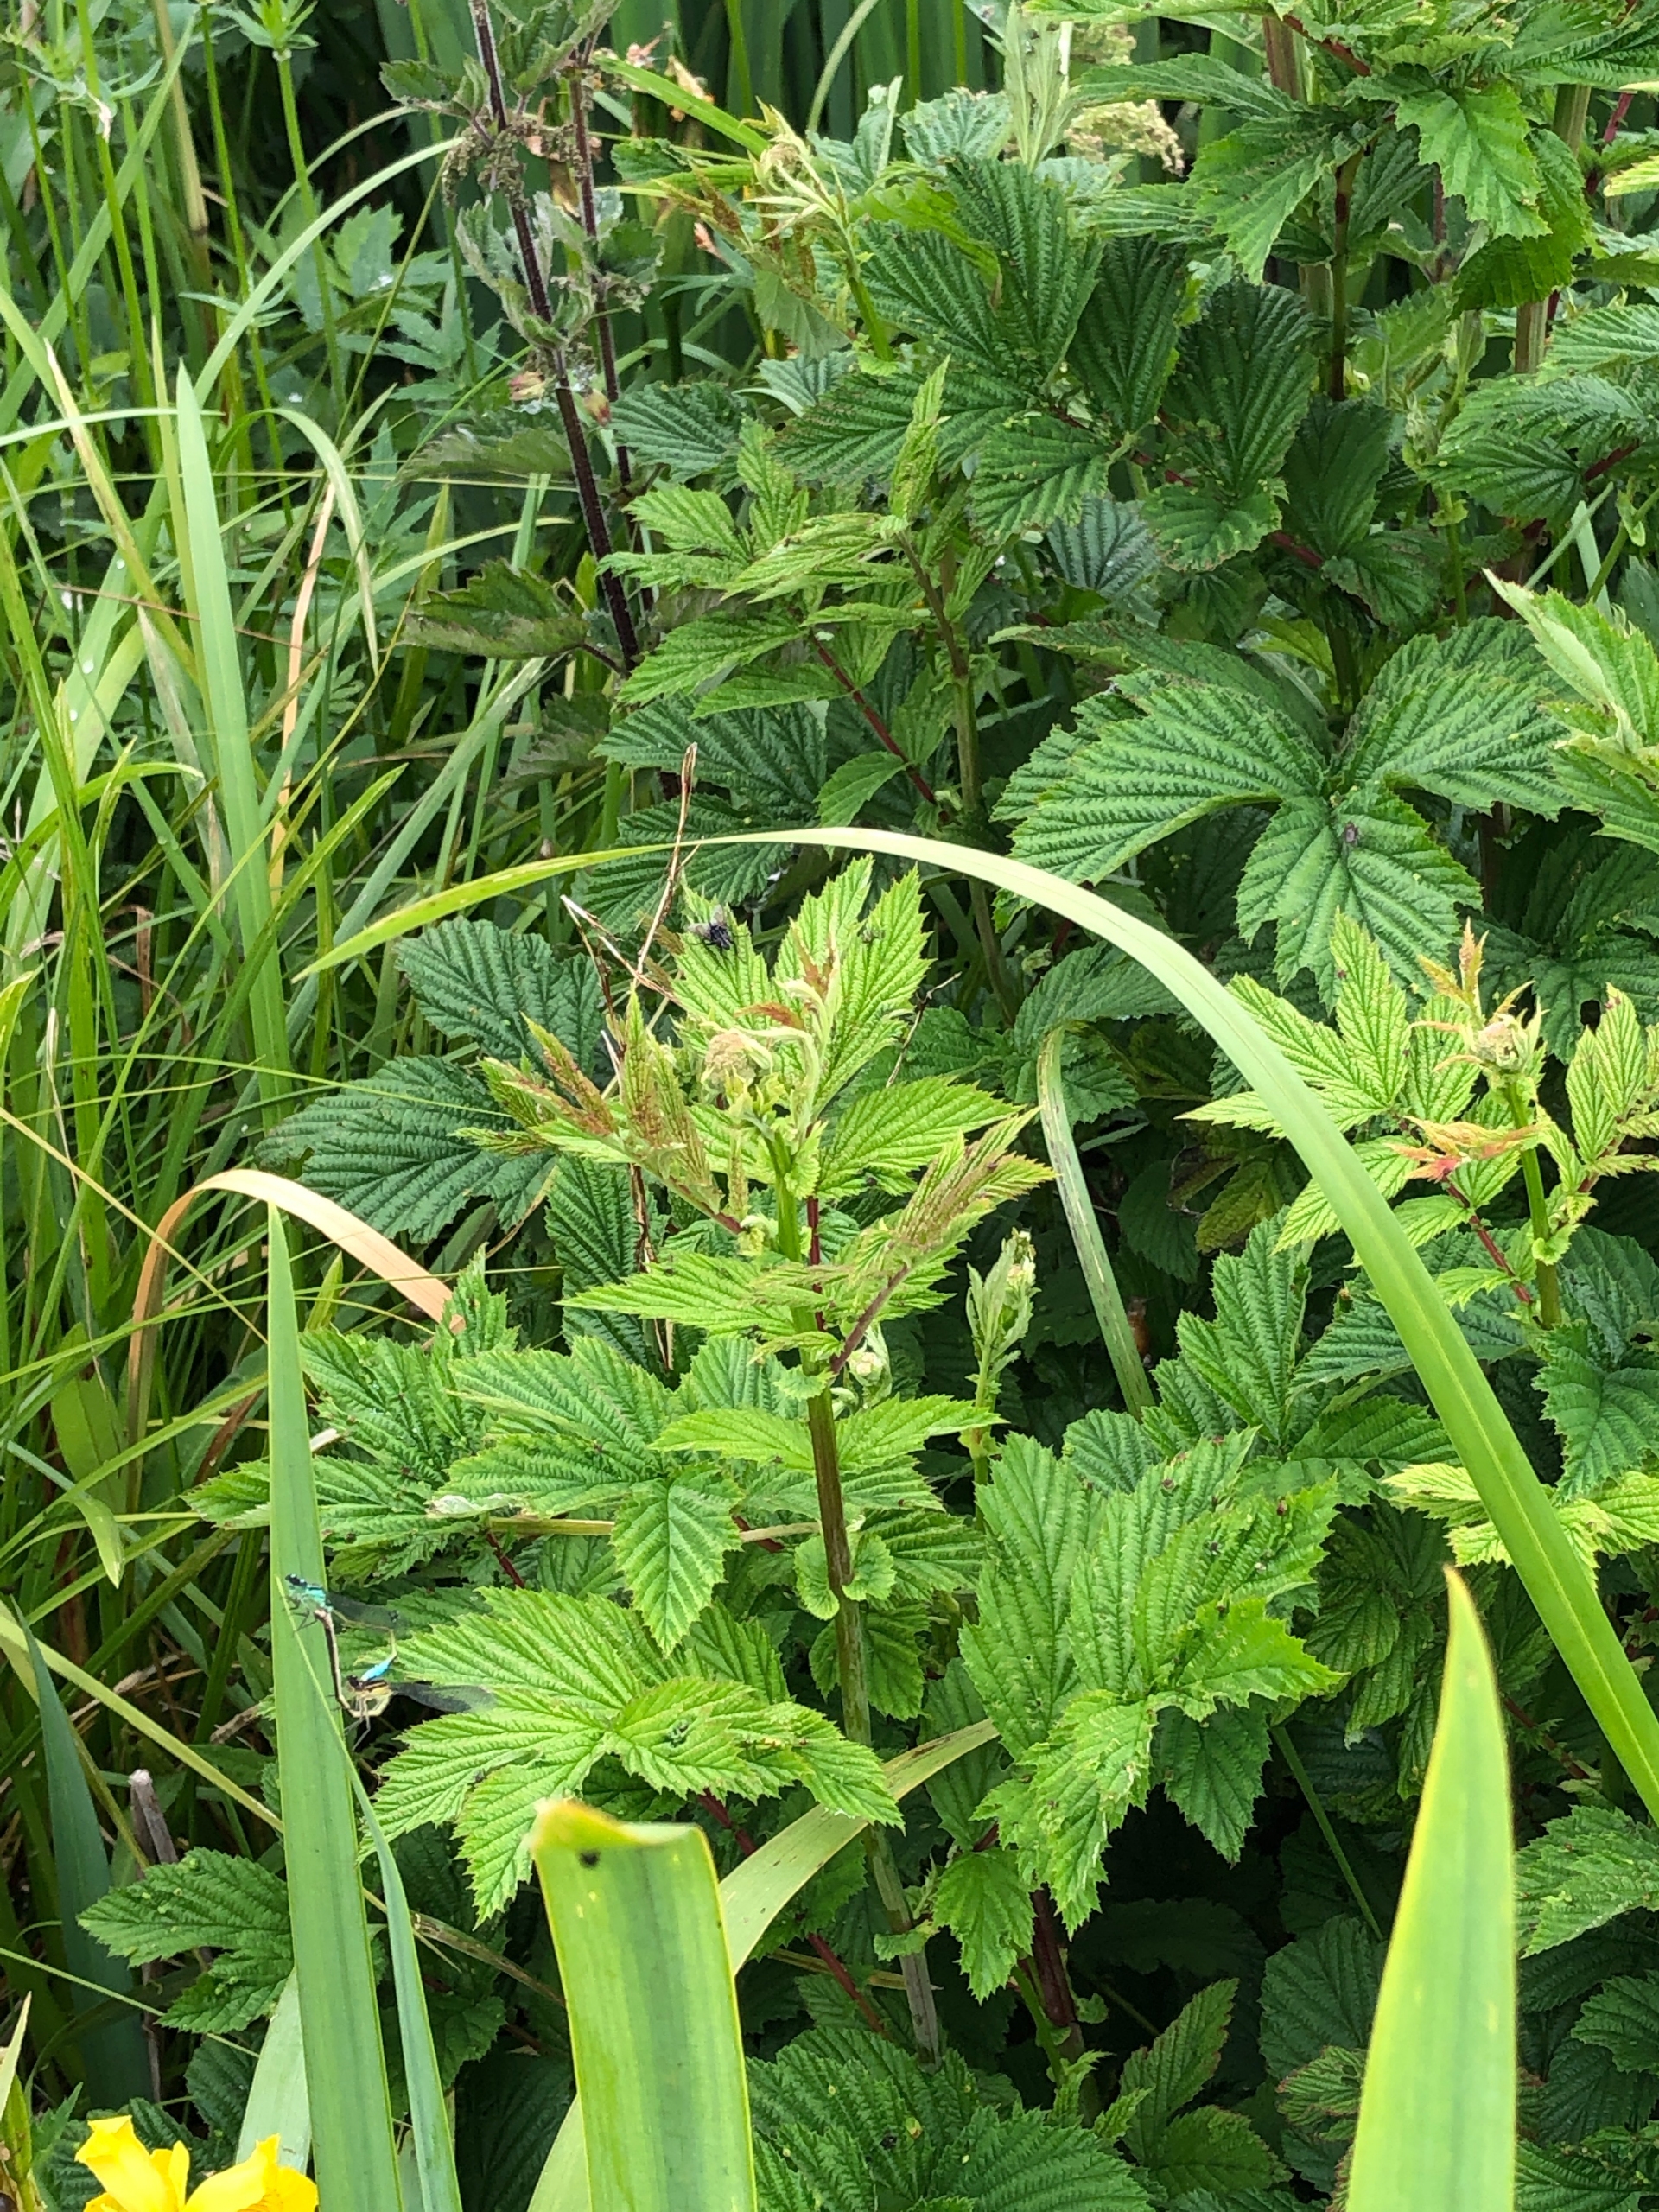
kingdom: Plantae
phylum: Tracheophyta
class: Magnoliopsida
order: Rosales
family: Rosaceae
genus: Filipendula
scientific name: Filipendula ulmaria
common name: Almindelig mjødurt
